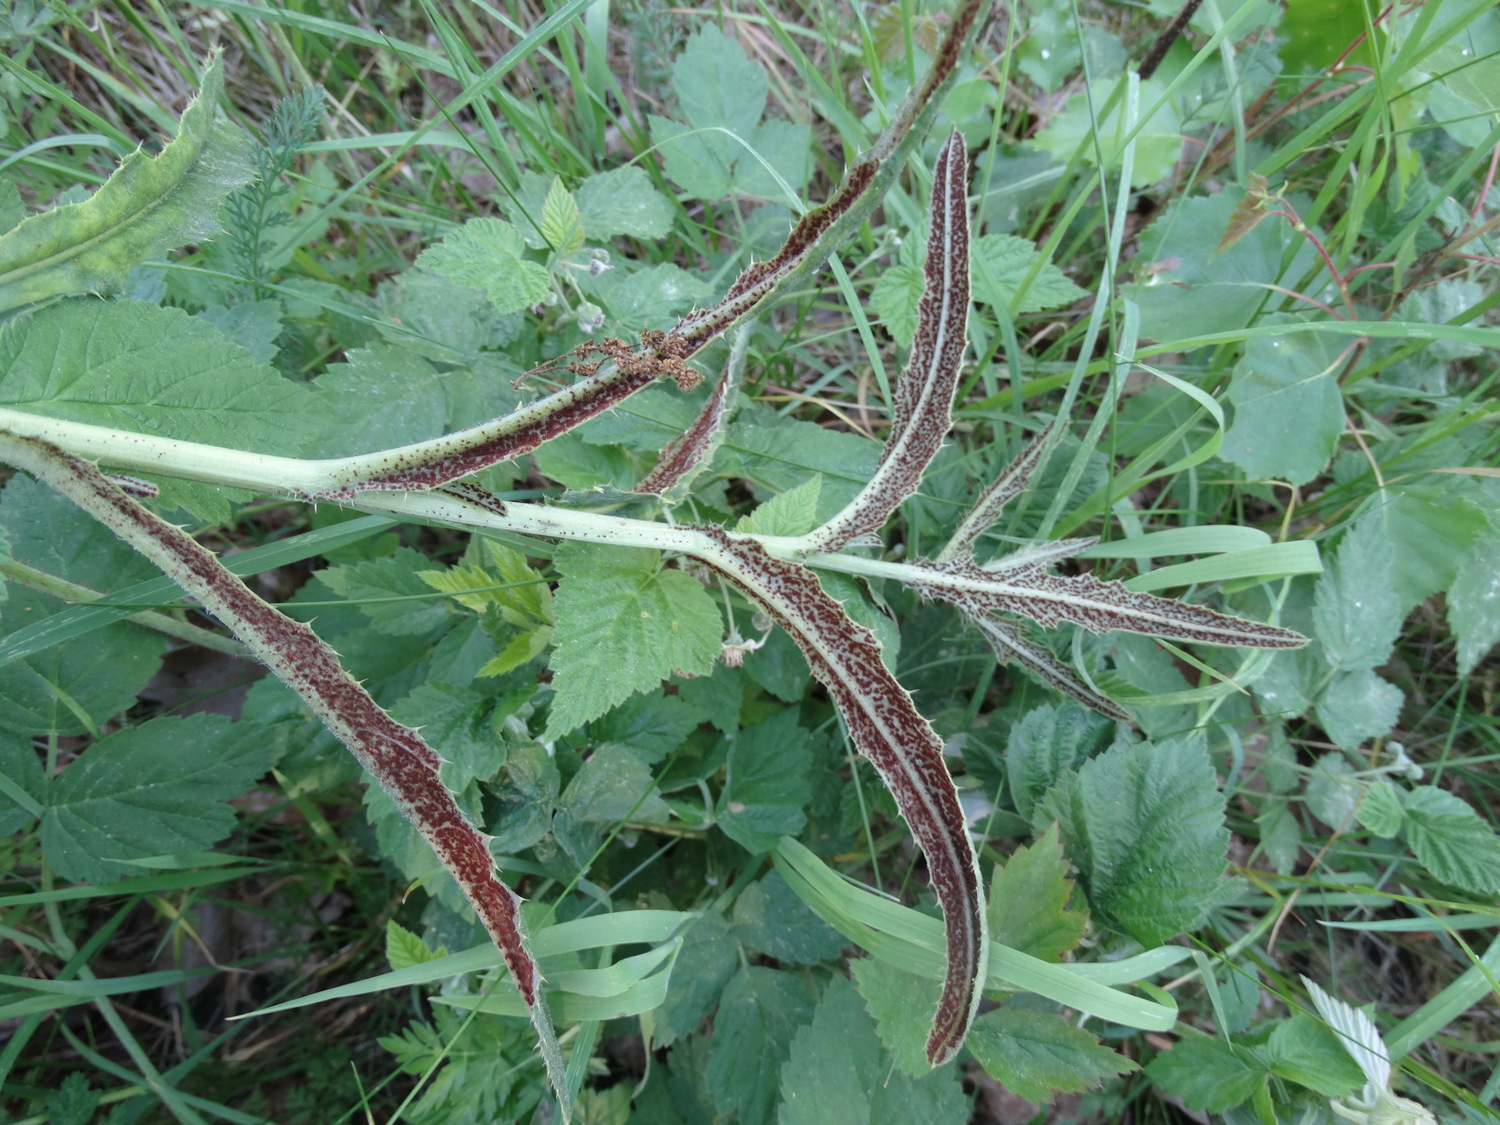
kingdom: Fungi
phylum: Basidiomycota
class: Pucciniomycetes
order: Pucciniales
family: Pucciniaceae
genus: Puccinia
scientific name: Puccinia suaveolens
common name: tidsel-tvecellerust
